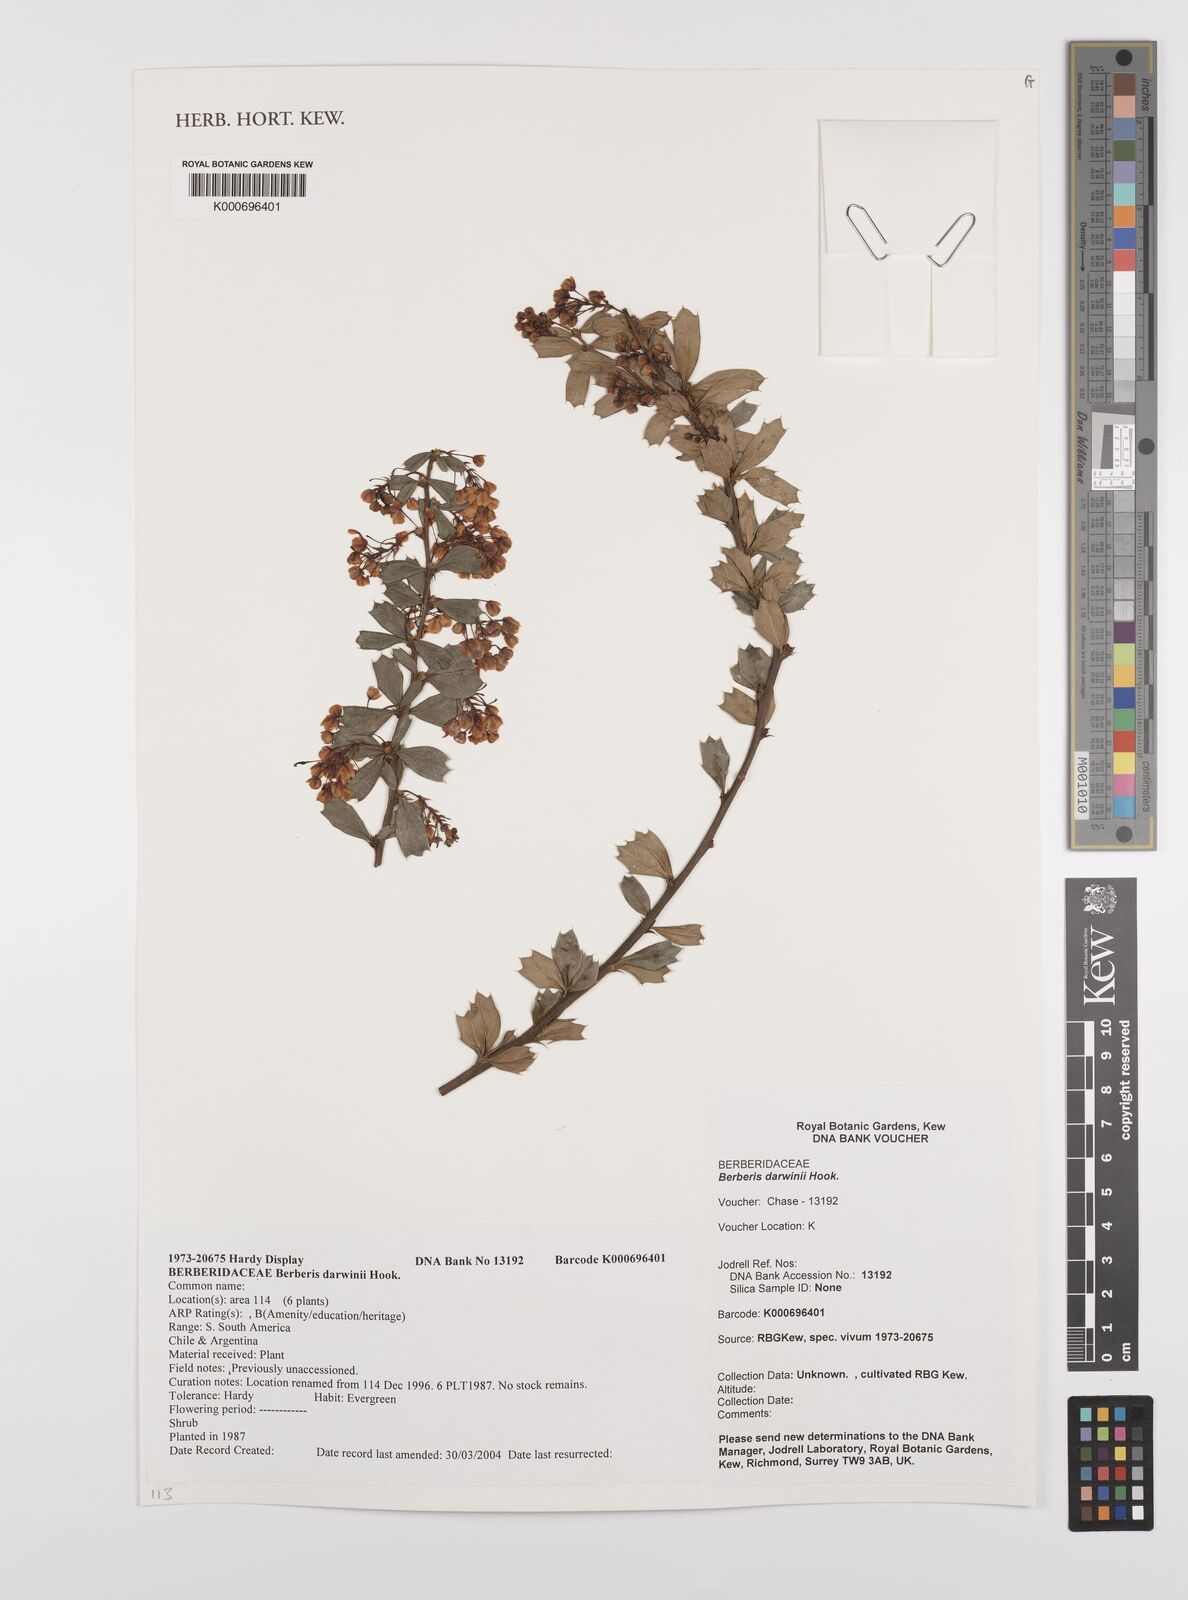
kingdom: Plantae
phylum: Tracheophyta
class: Magnoliopsida
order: Ranunculales
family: Berberidaceae
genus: Berberis
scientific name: Berberis darwinii
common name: Darwin's barberry
